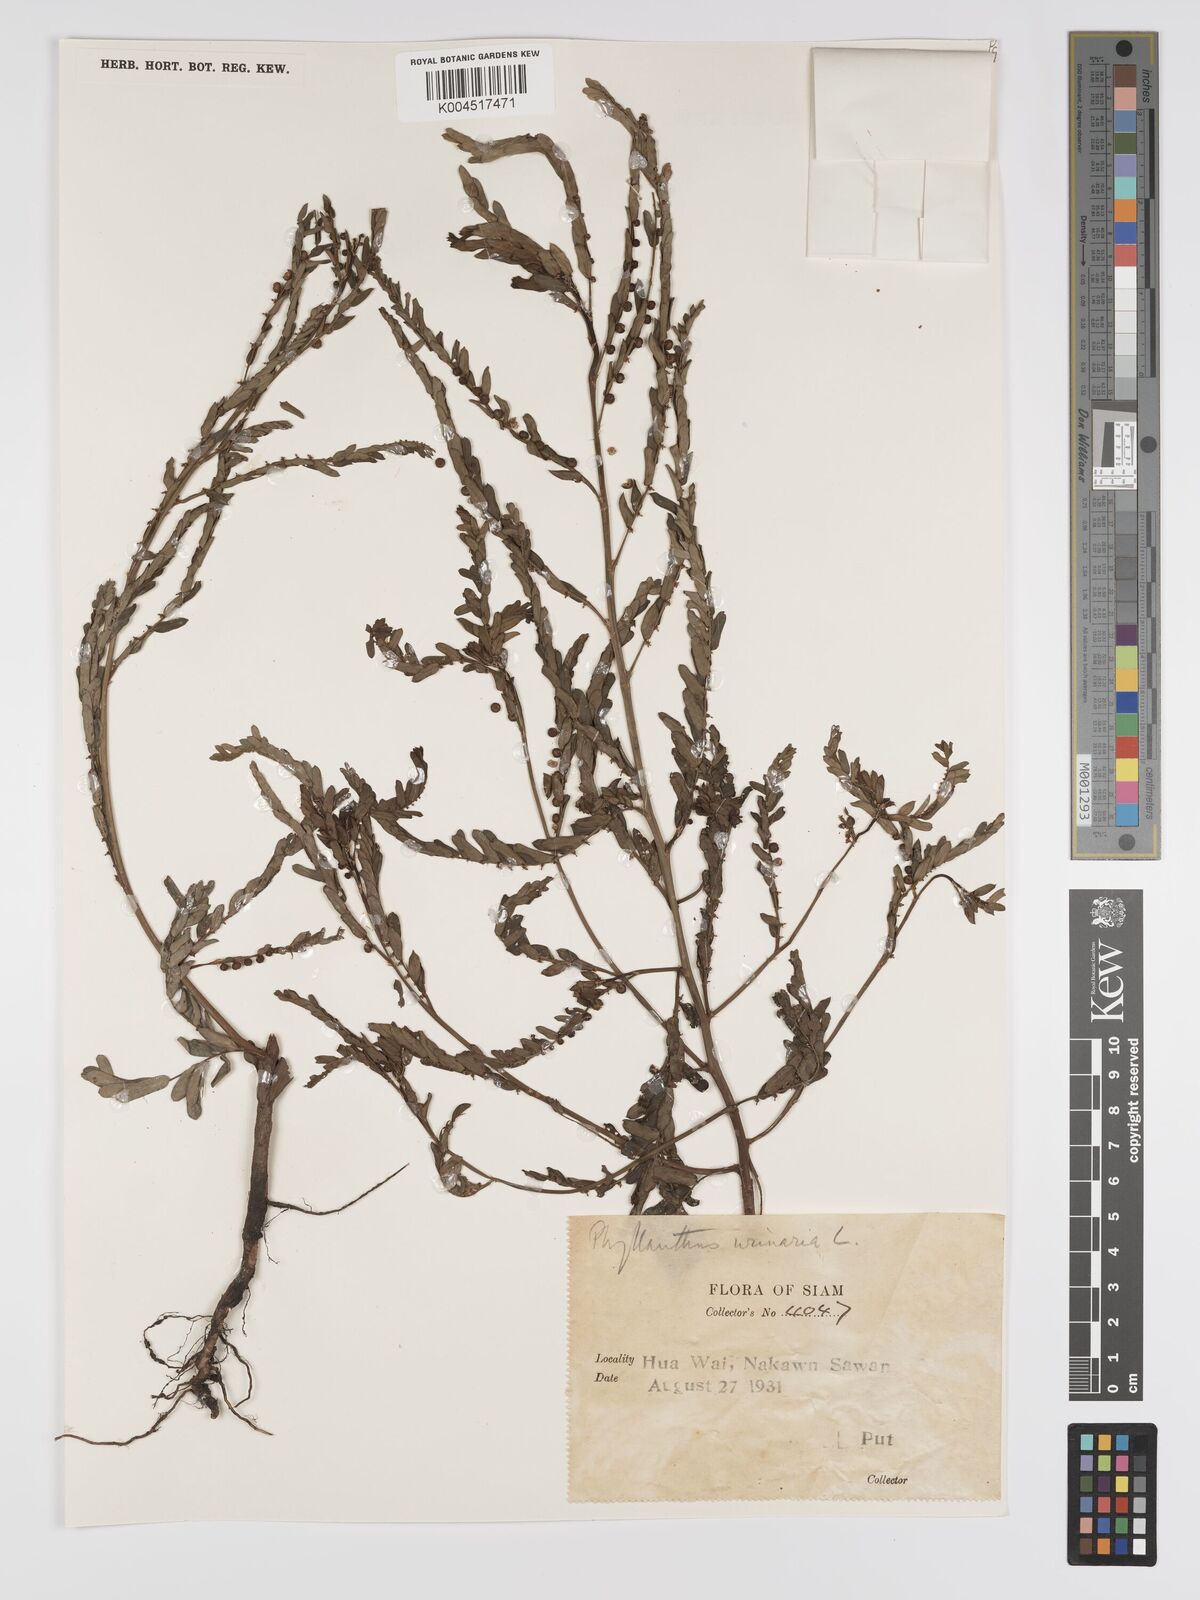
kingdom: Plantae
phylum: Tracheophyta
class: Magnoliopsida
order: Malpighiales
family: Phyllanthaceae
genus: Phyllanthus
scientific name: Phyllanthus urinaria
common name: Chamber bitter
